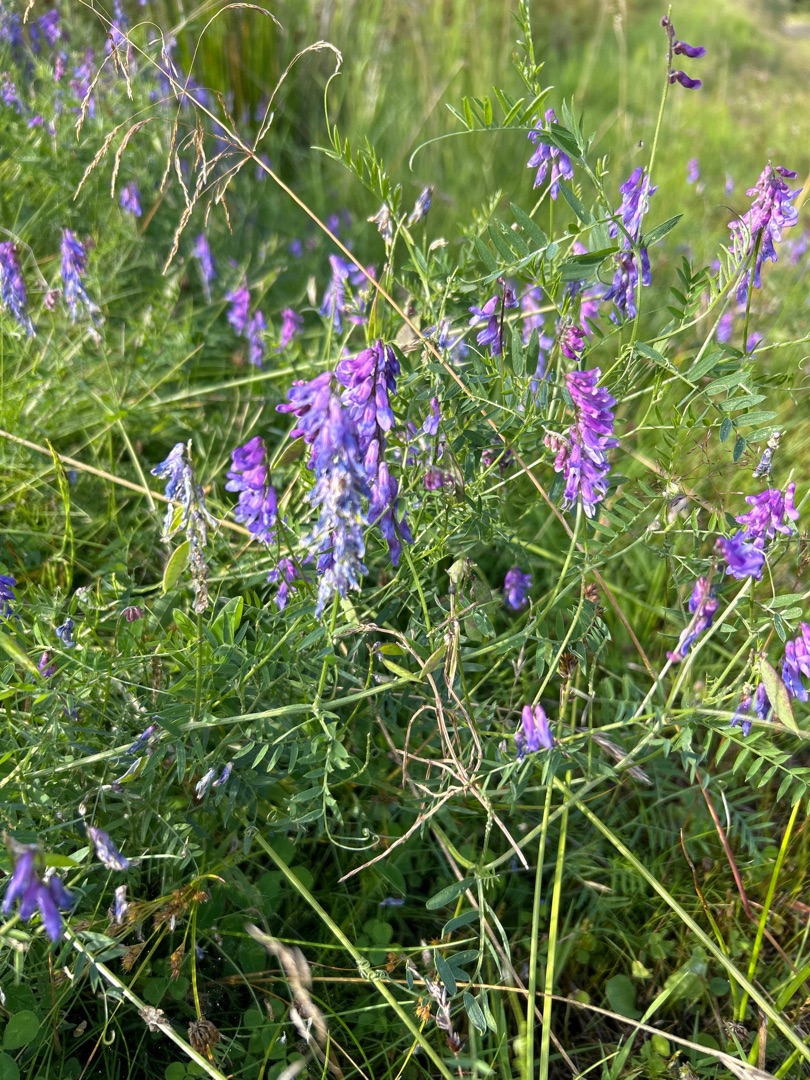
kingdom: Plantae
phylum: Tracheophyta
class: Magnoliopsida
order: Fabales
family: Fabaceae
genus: Vicia
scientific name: Vicia cracca
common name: Muse-vikke
